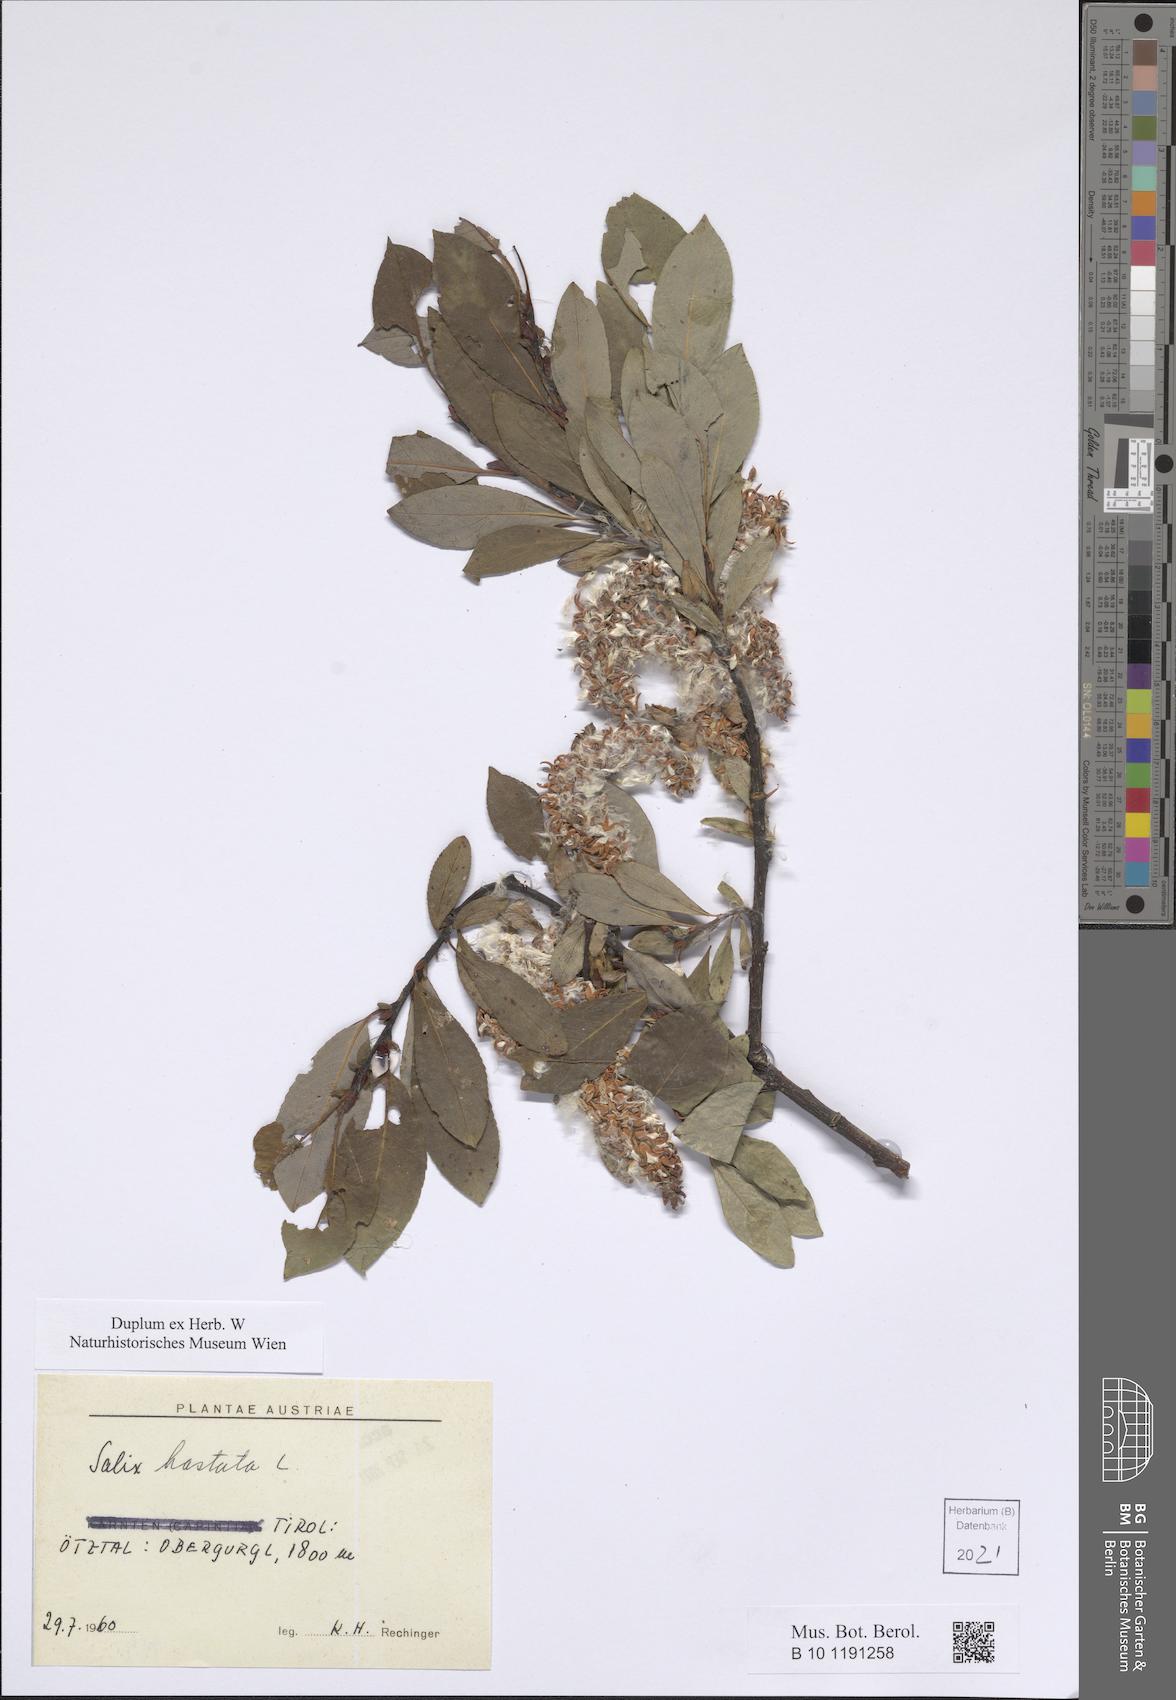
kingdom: Plantae
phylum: Tracheophyta
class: Magnoliopsida
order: Malpighiales
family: Salicaceae
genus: Salix
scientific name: Salix hastata
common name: Halberd willow
